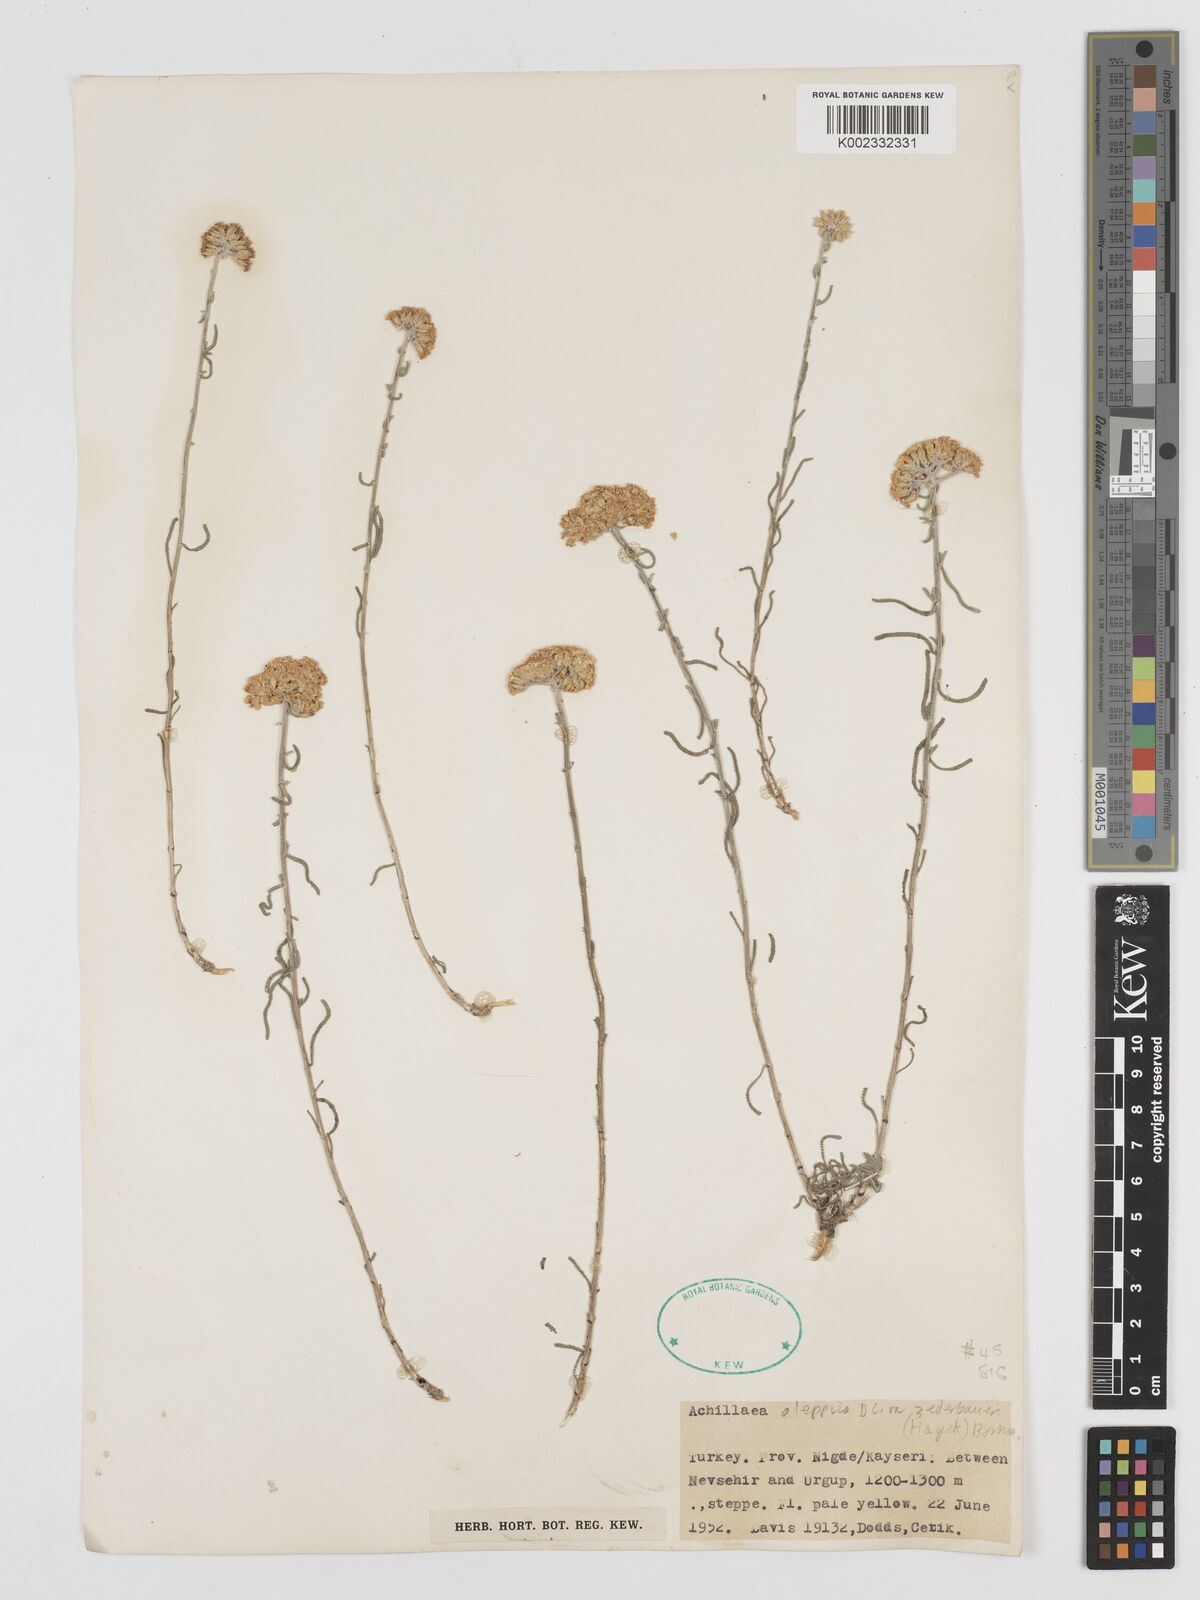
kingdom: Plantae
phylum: Tracheophyta
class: Magnoliopsida
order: Asterales
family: Asteraceae
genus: Achillea
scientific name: Achillea aleppica
